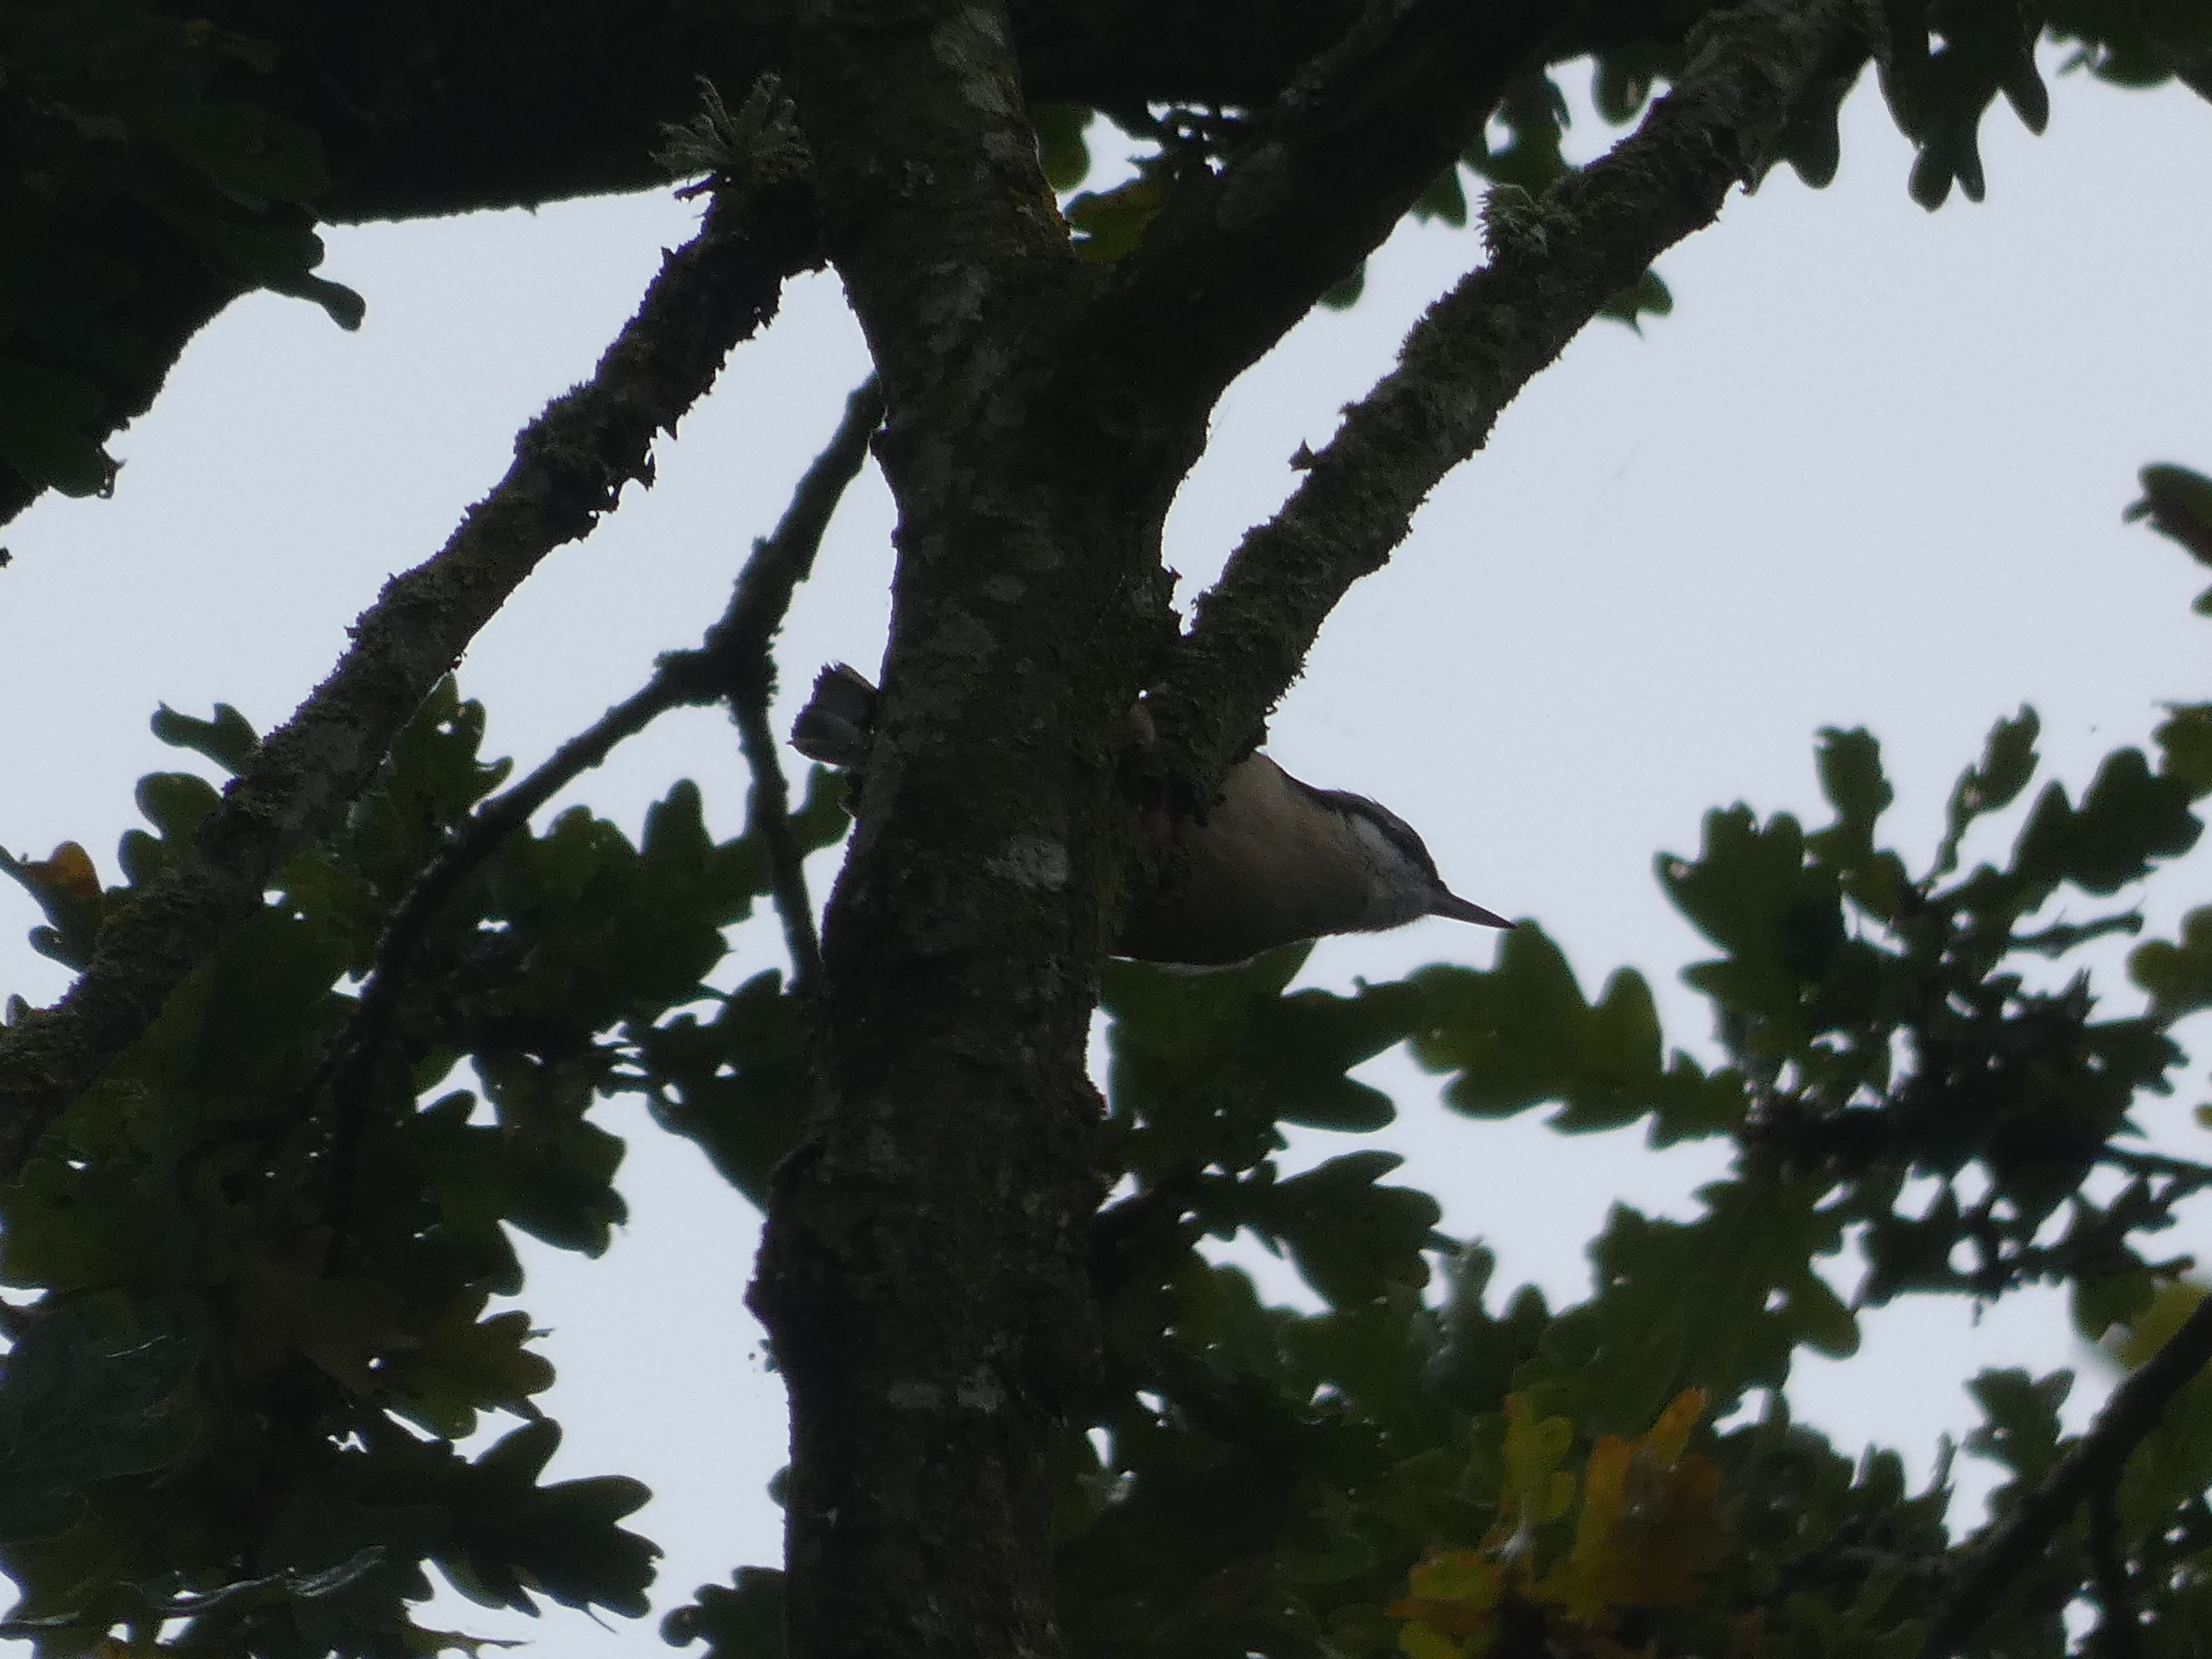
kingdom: Animalia
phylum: Chordata
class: Aves
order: Passeriformes
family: Sittidae
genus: Sitta
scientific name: Sitta europaea
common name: Spætmejse
